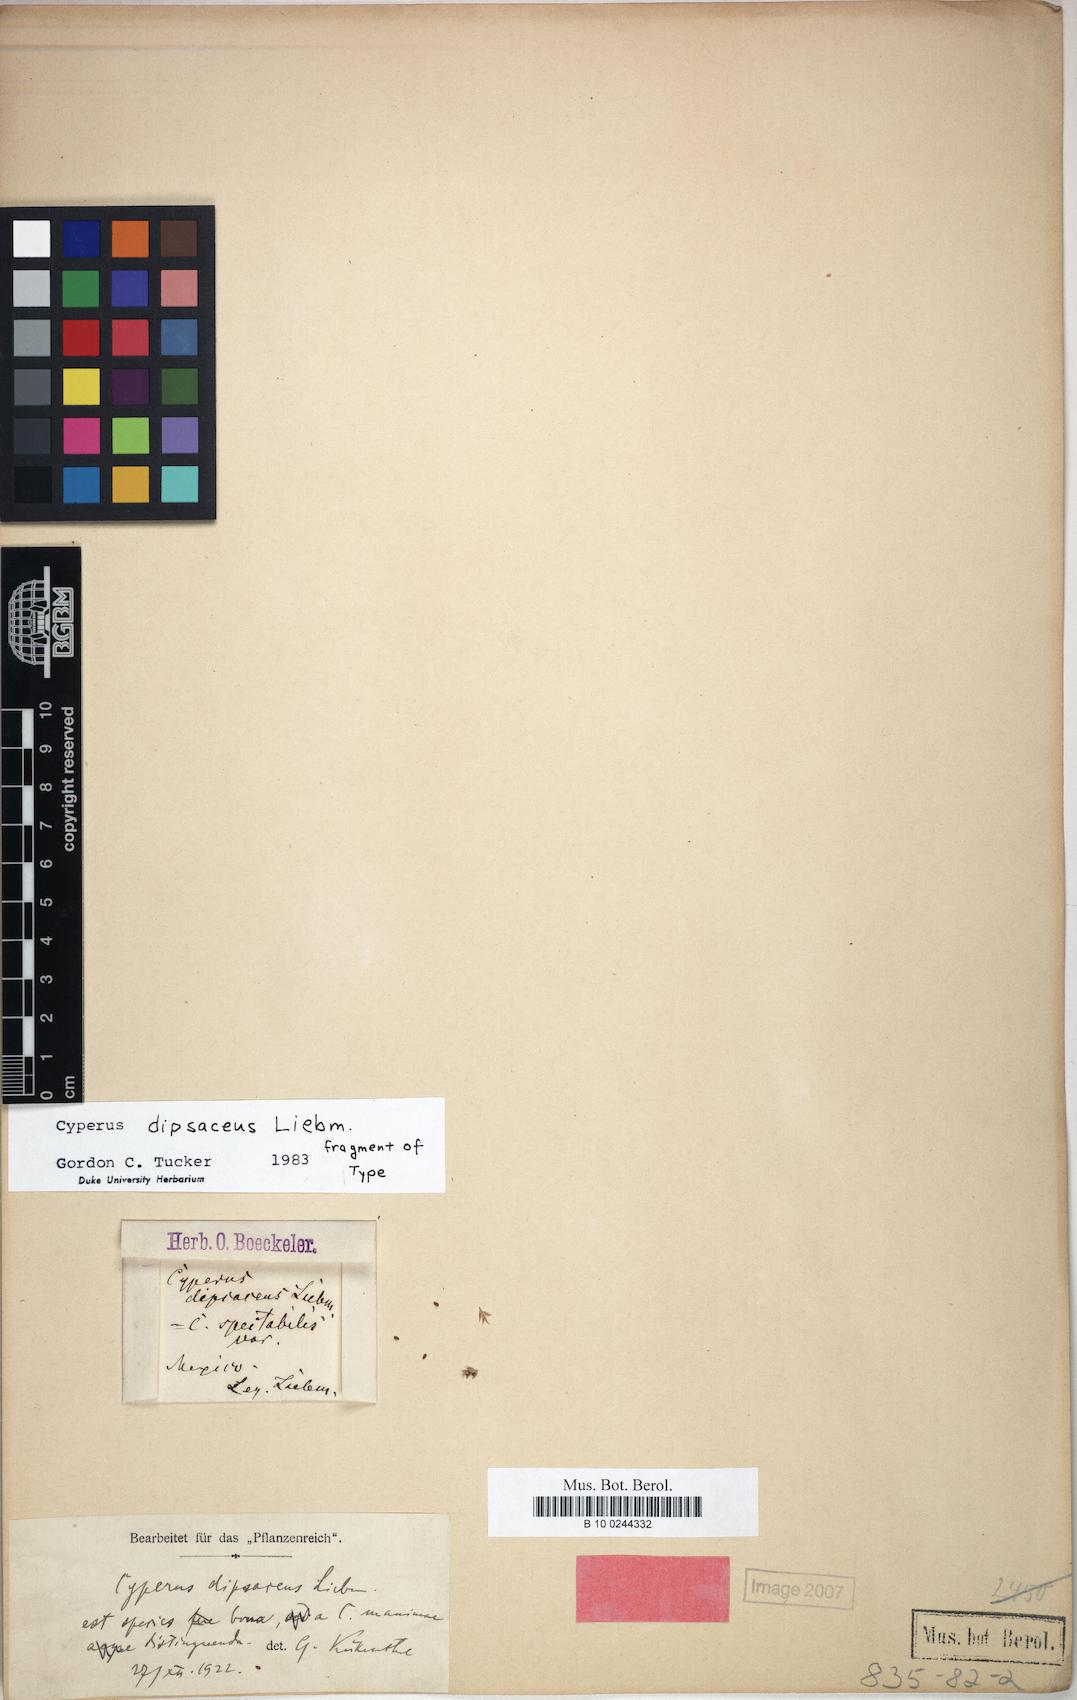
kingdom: Plantae
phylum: Tracheophyta
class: Liliopsida
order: Poales
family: Cyperaceae
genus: Cyperus
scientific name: Cyperus dipsaceus
